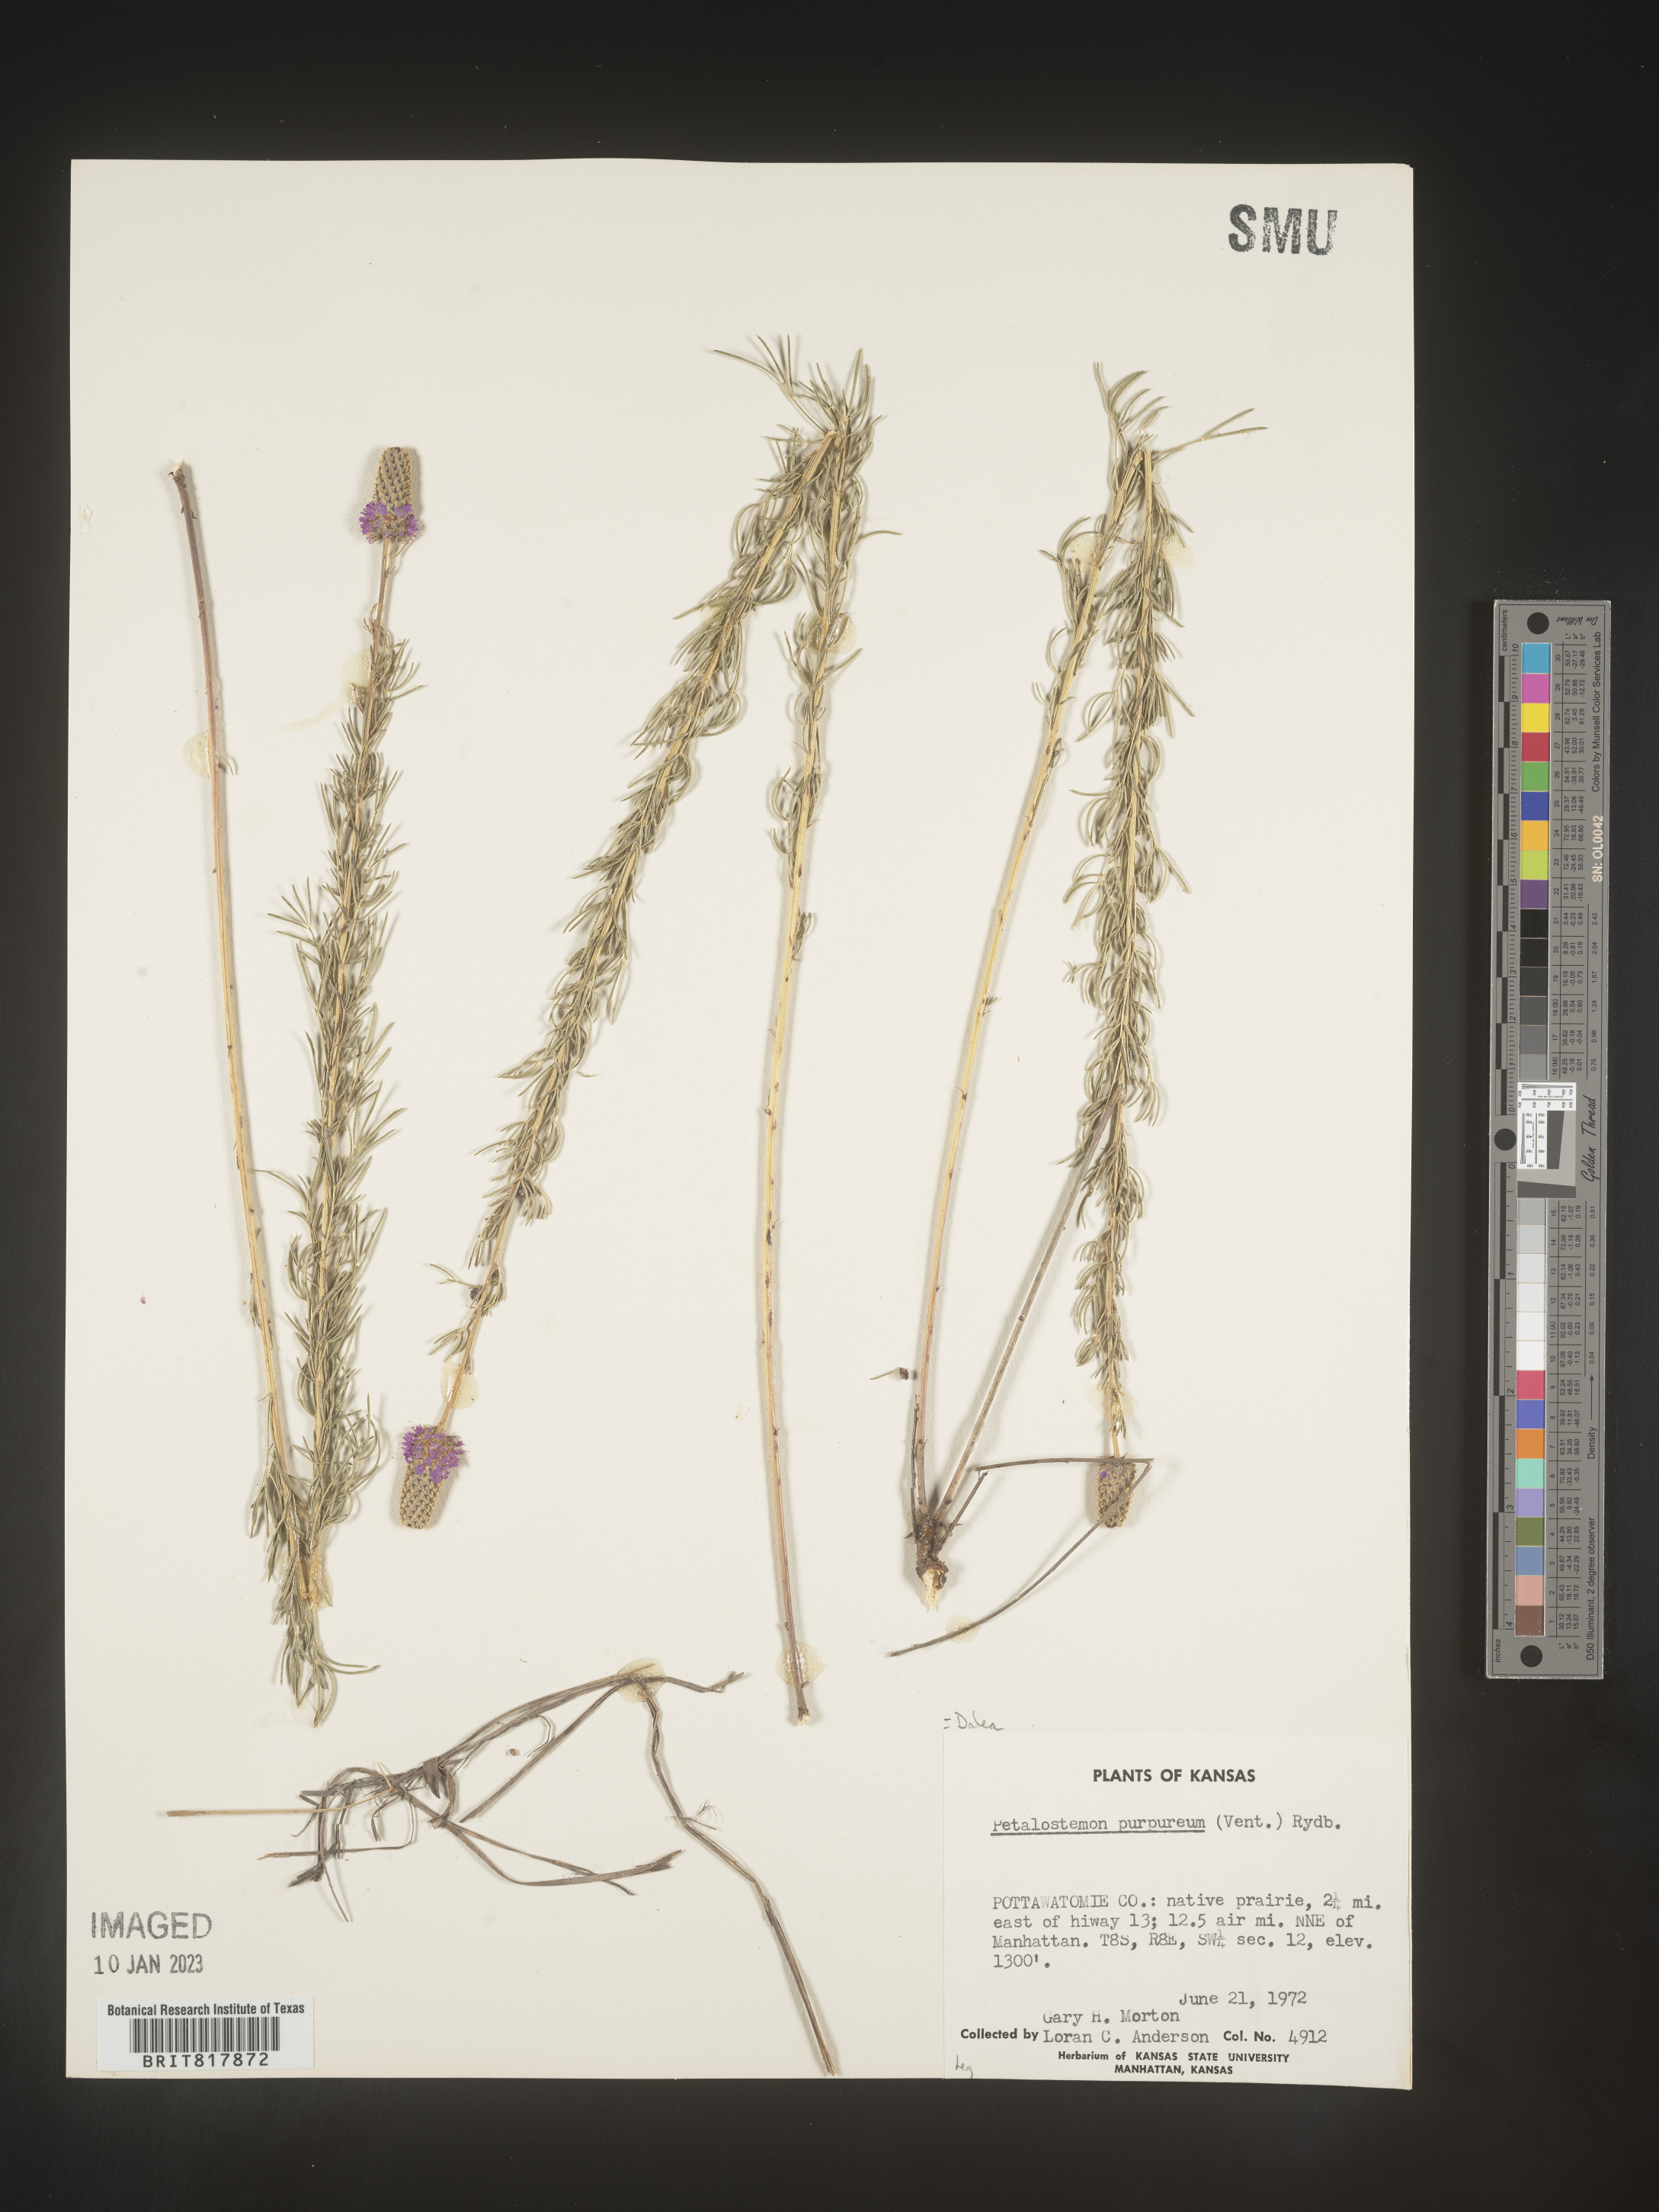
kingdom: Plantae
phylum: Tracheophyta
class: Magnoliopsida
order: Fabales
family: Fabaceae
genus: Dalea
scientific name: Dalea purpurea
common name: Purple prairie-clover
